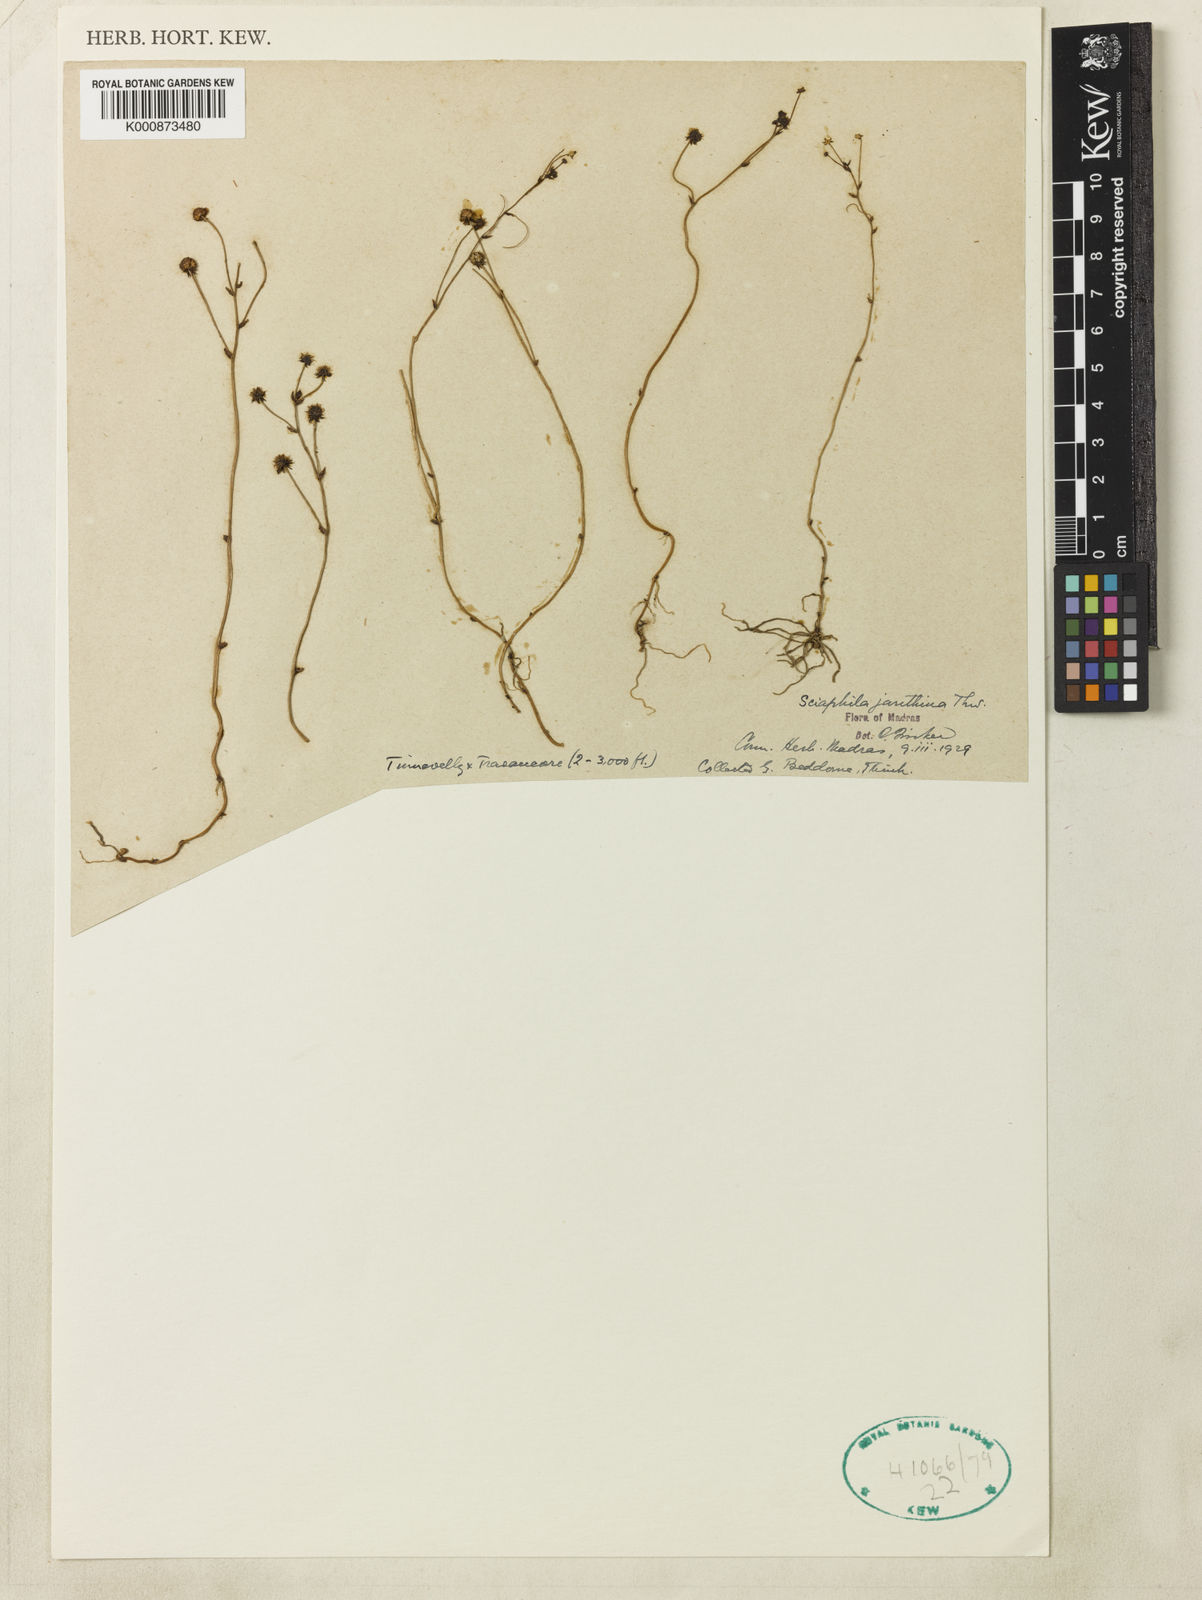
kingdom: Plantae
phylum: Tracheophyta
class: Liliopsida
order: Pandanales
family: Triuridaceae
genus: Sciaphila
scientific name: Sciaphila janthina
